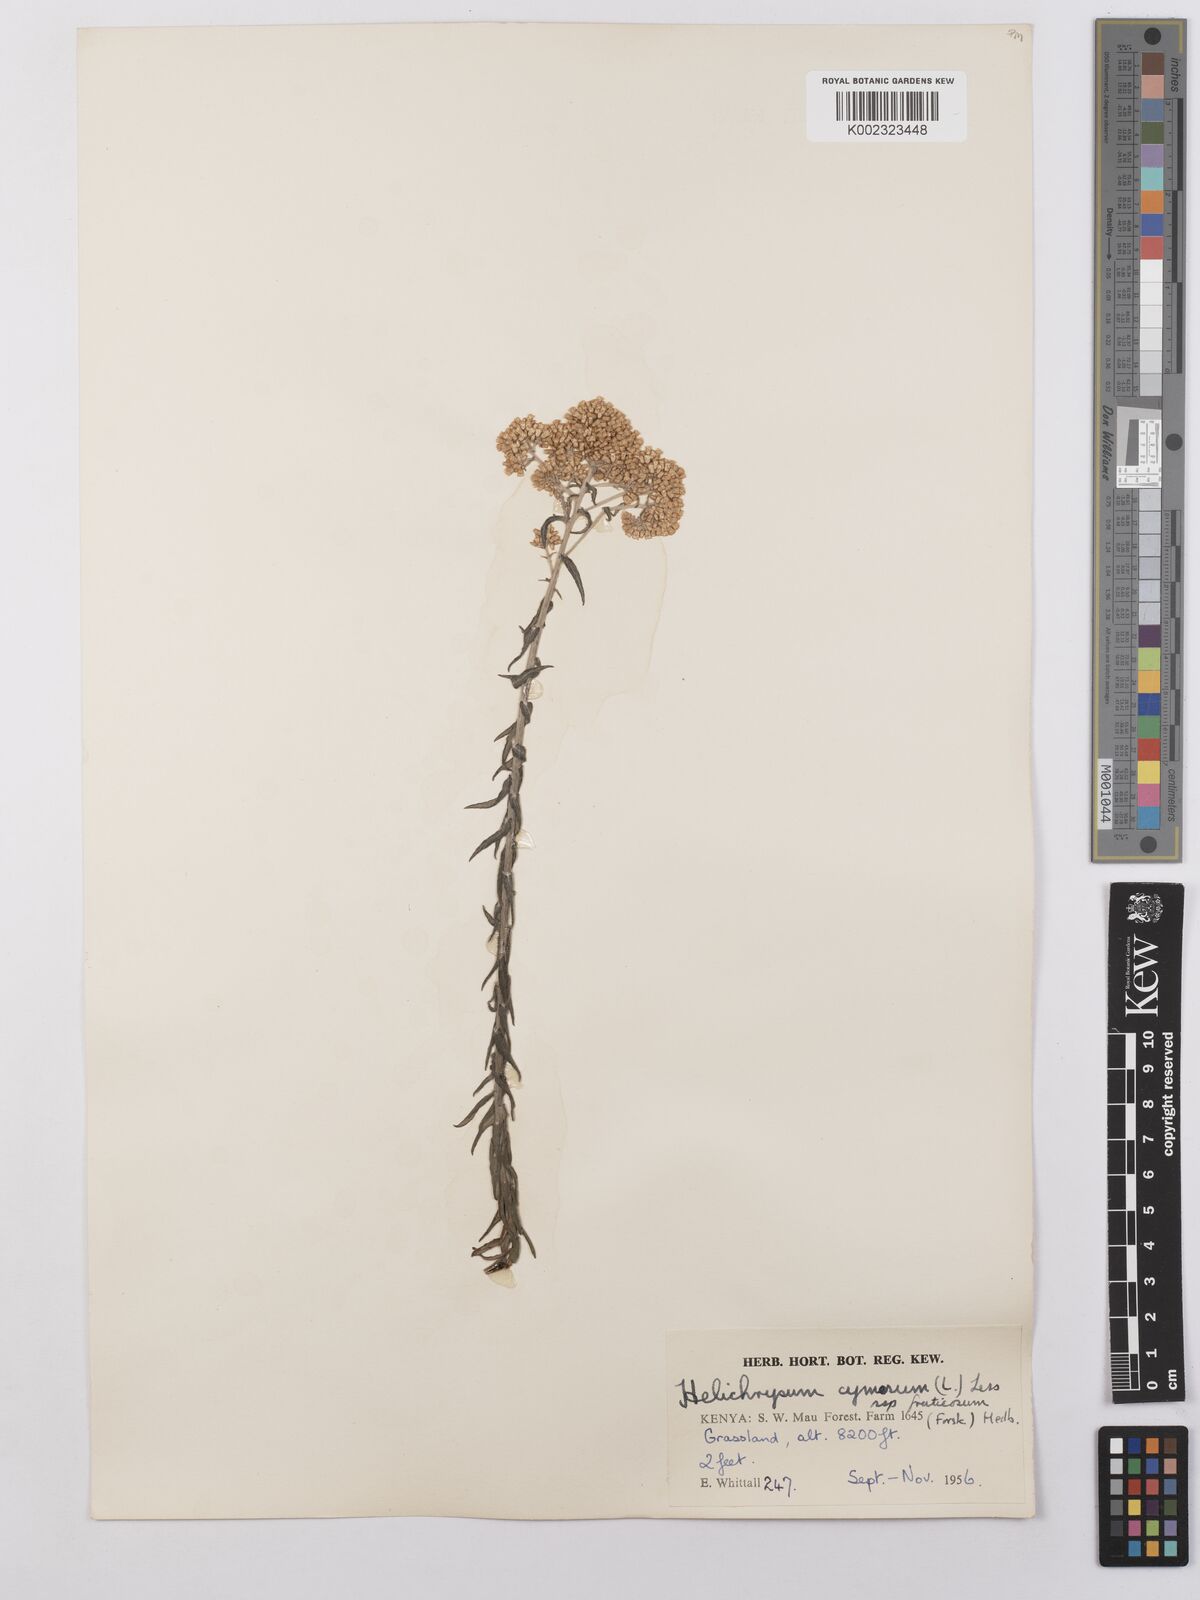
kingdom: Plantae
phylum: Tracheophyta
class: Magnoliopsida
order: Asterales
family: Asteraceae
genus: Helichrysum
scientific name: Helichrysum forskahlii
